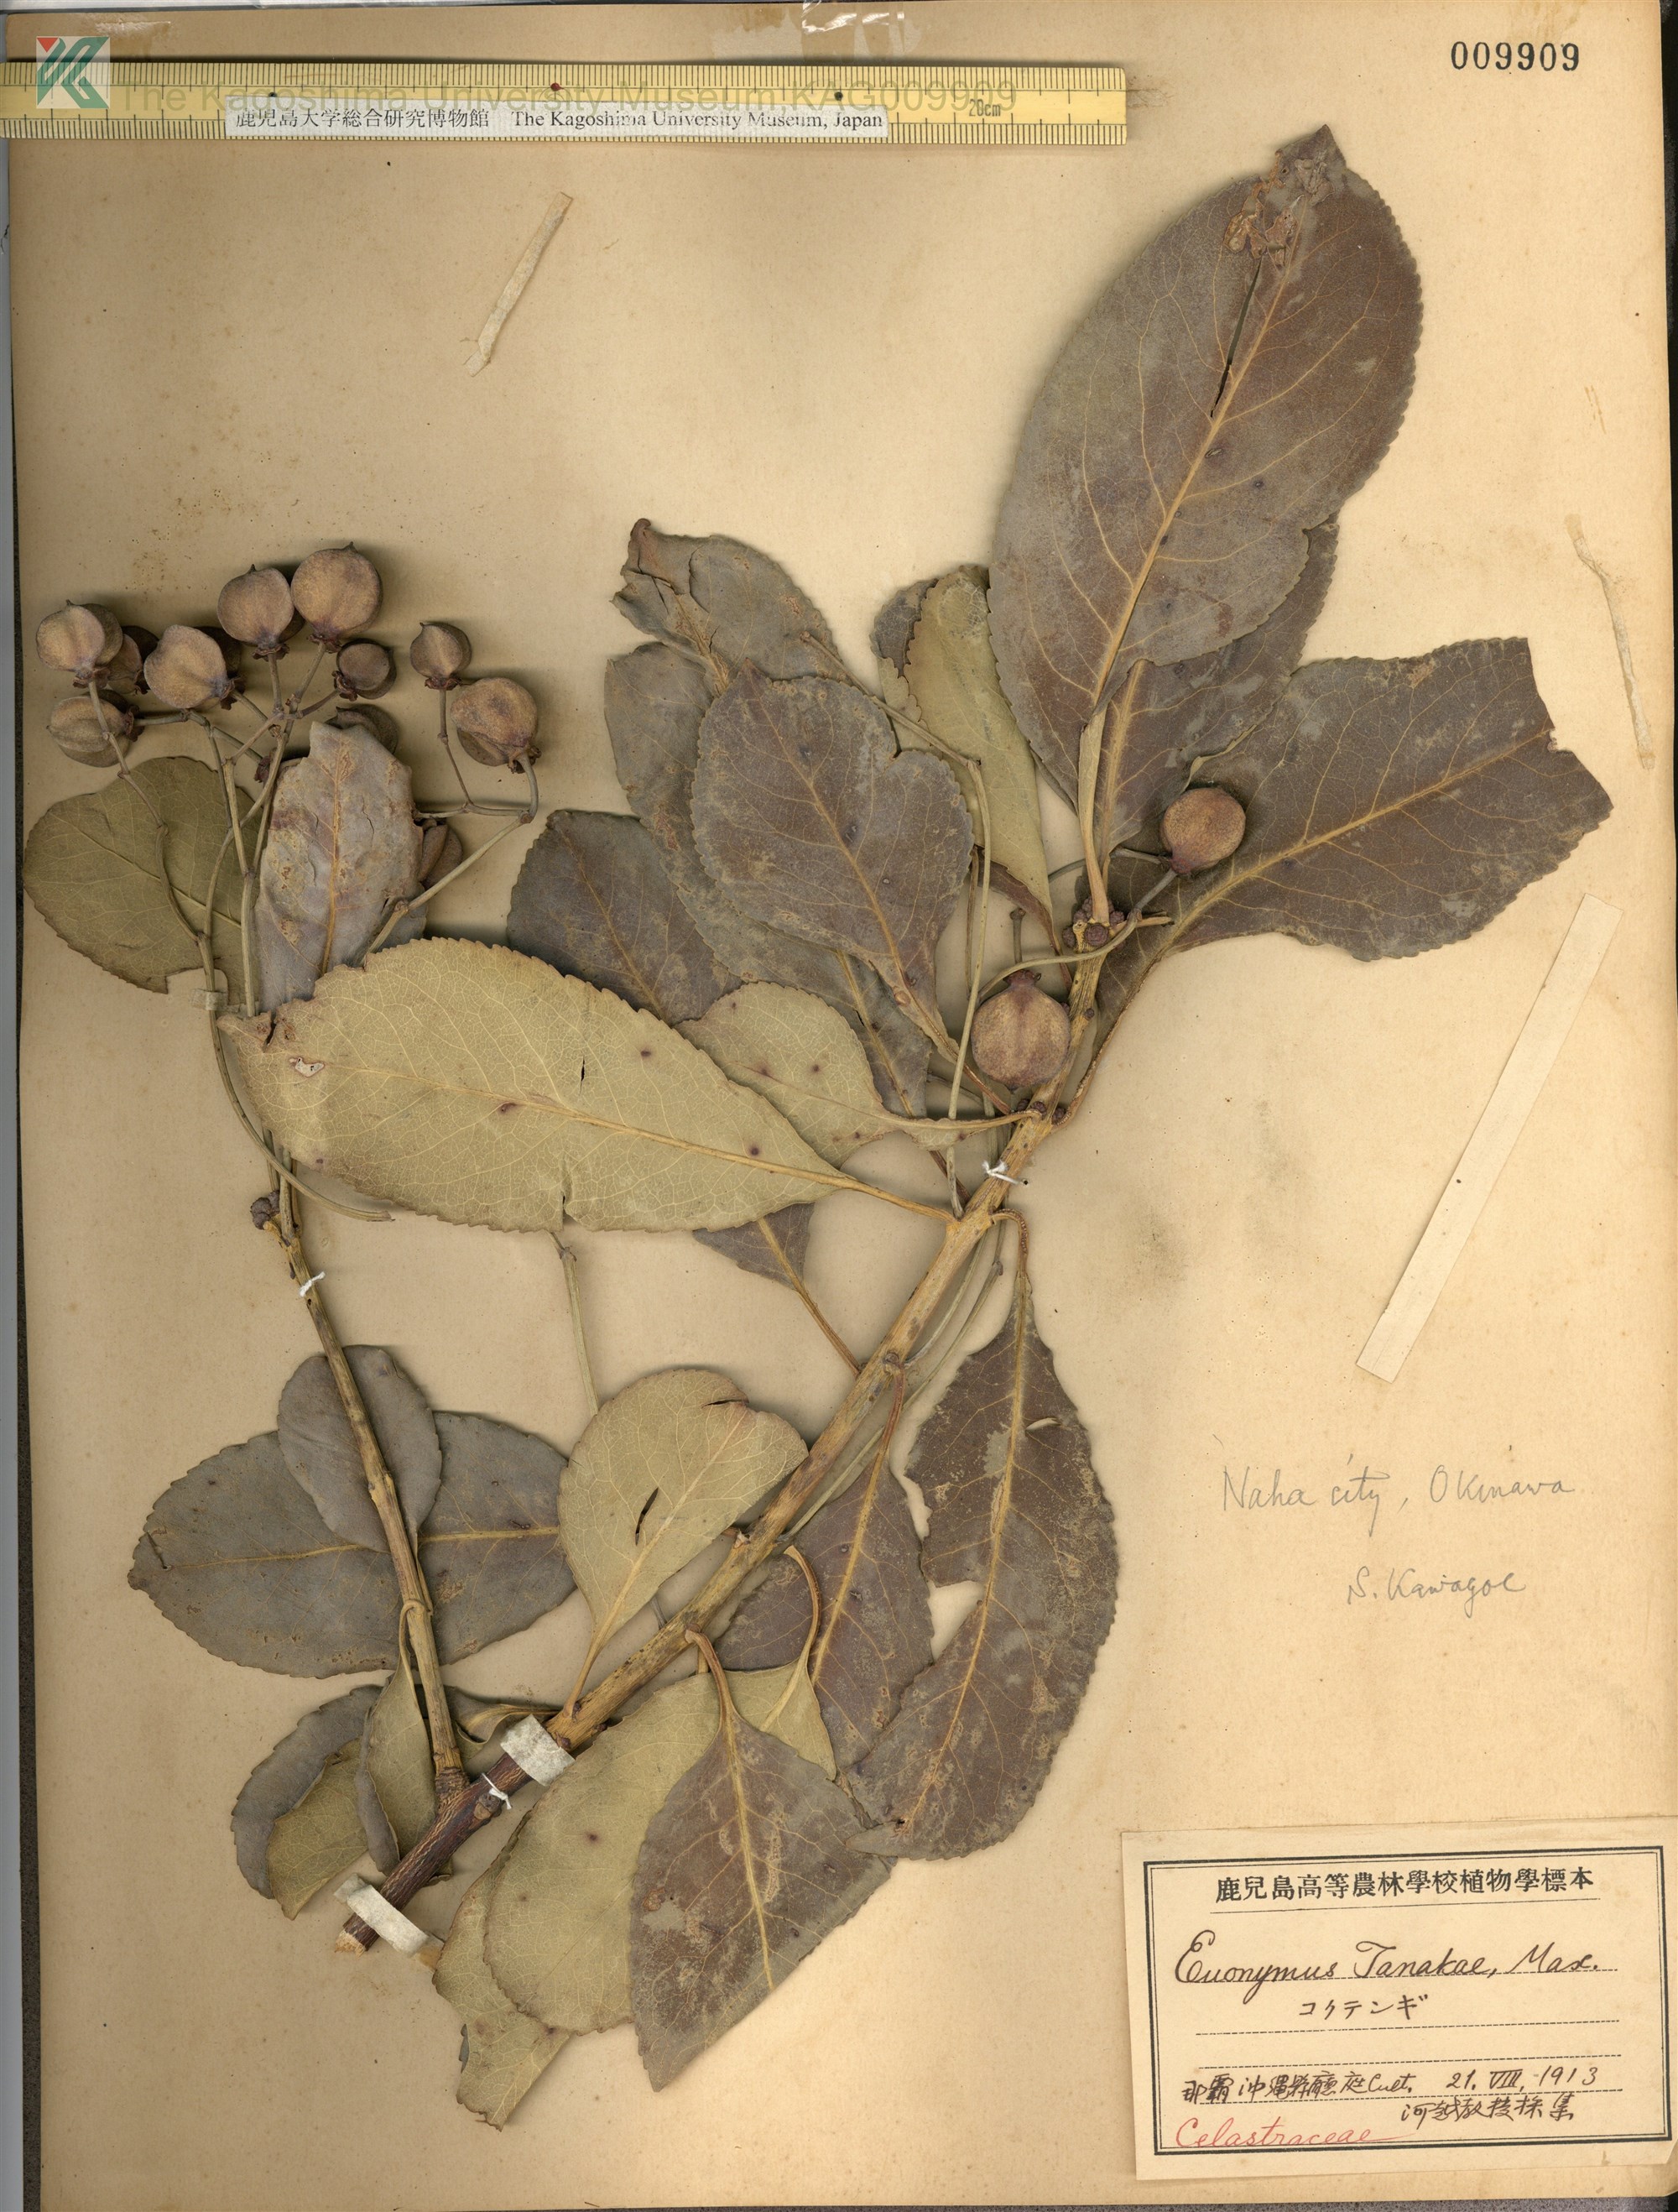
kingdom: Plantae
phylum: Tracheophyta
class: Magnoliopsida
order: Celastrales
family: Celastraceae
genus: Euonymus
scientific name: Euonymus carnosus
